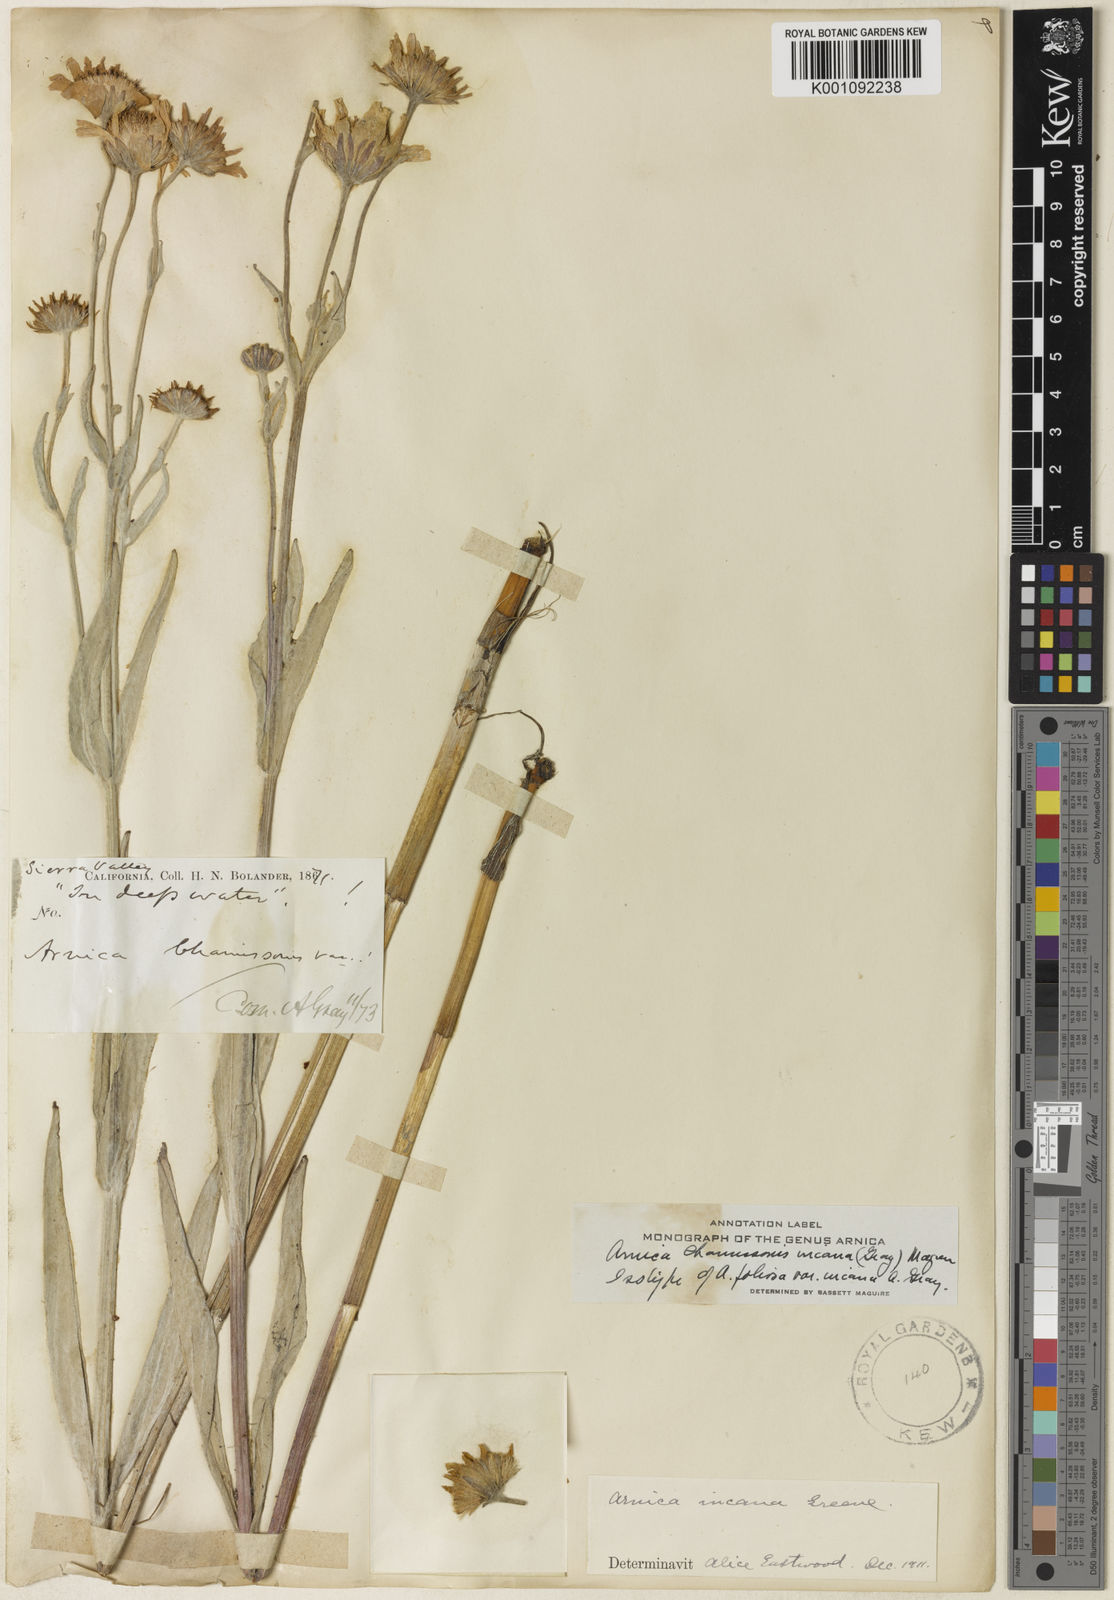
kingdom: Plantae
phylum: Tracheophyta
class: Magnoliopsida
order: Asterales
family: Asteraceae
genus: Arnica
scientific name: Arnica chamissonis
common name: Leafy arnica
